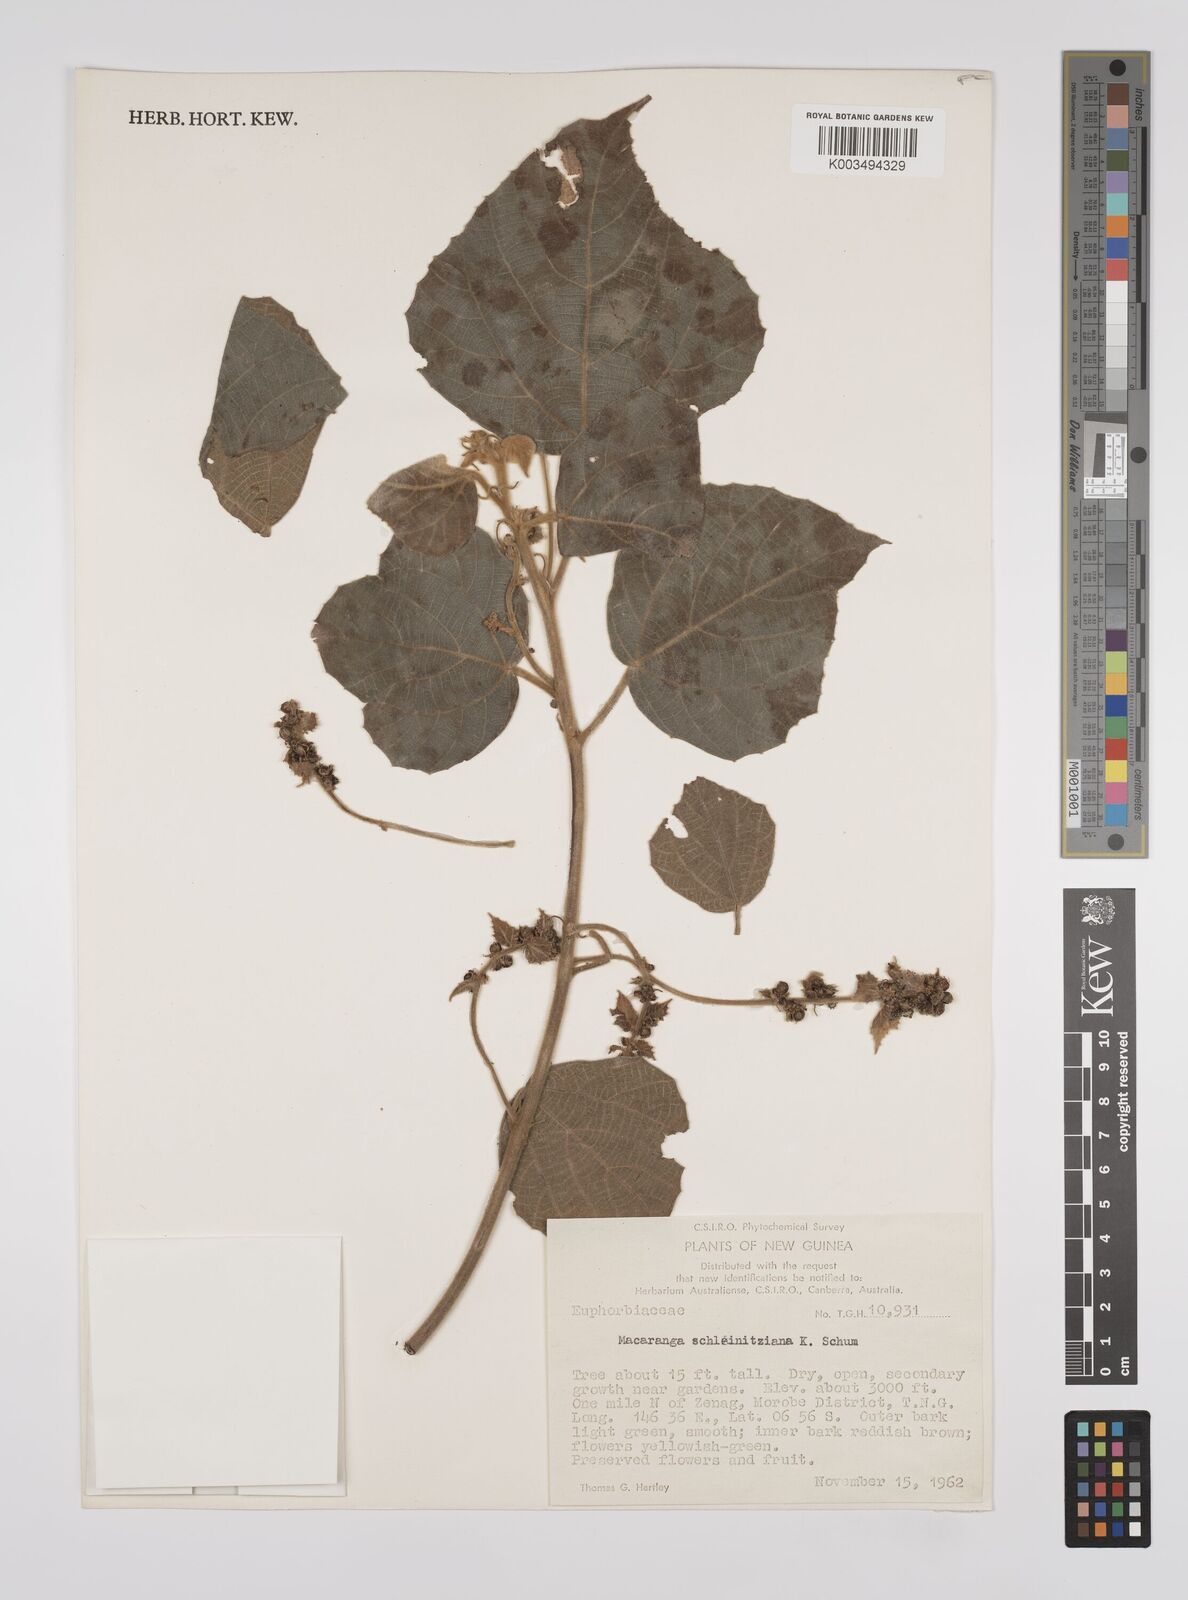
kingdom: Plantae
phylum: Tracheophyta
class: Magnoliopsida
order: Malpighiales
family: Euphorbiaceae
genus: Macaranga
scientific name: Macaranga involucrata
